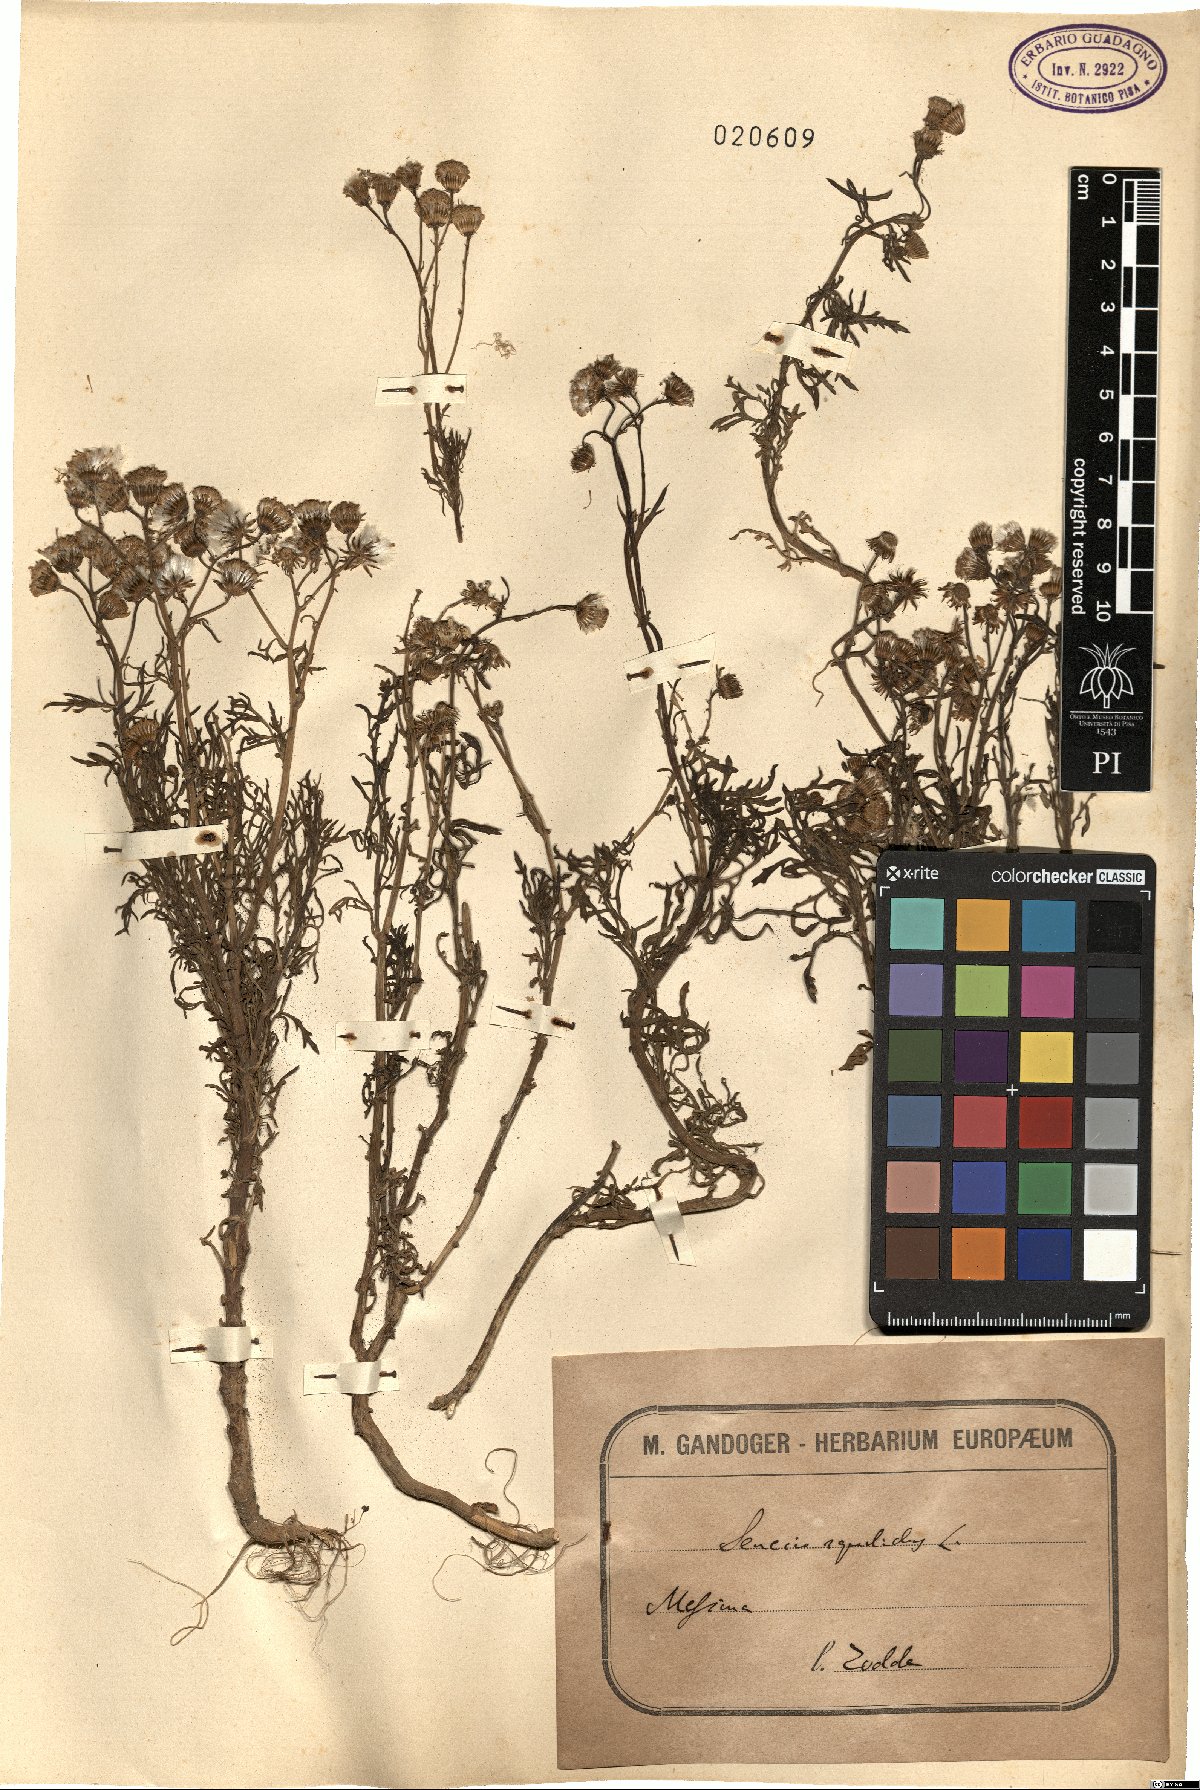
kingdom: Plantae
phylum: Tracheophyta
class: Magnoliopsida
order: Asterales
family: Asteraceae
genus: Senecio
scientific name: Senecio squalidus
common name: Oxford ragwort
